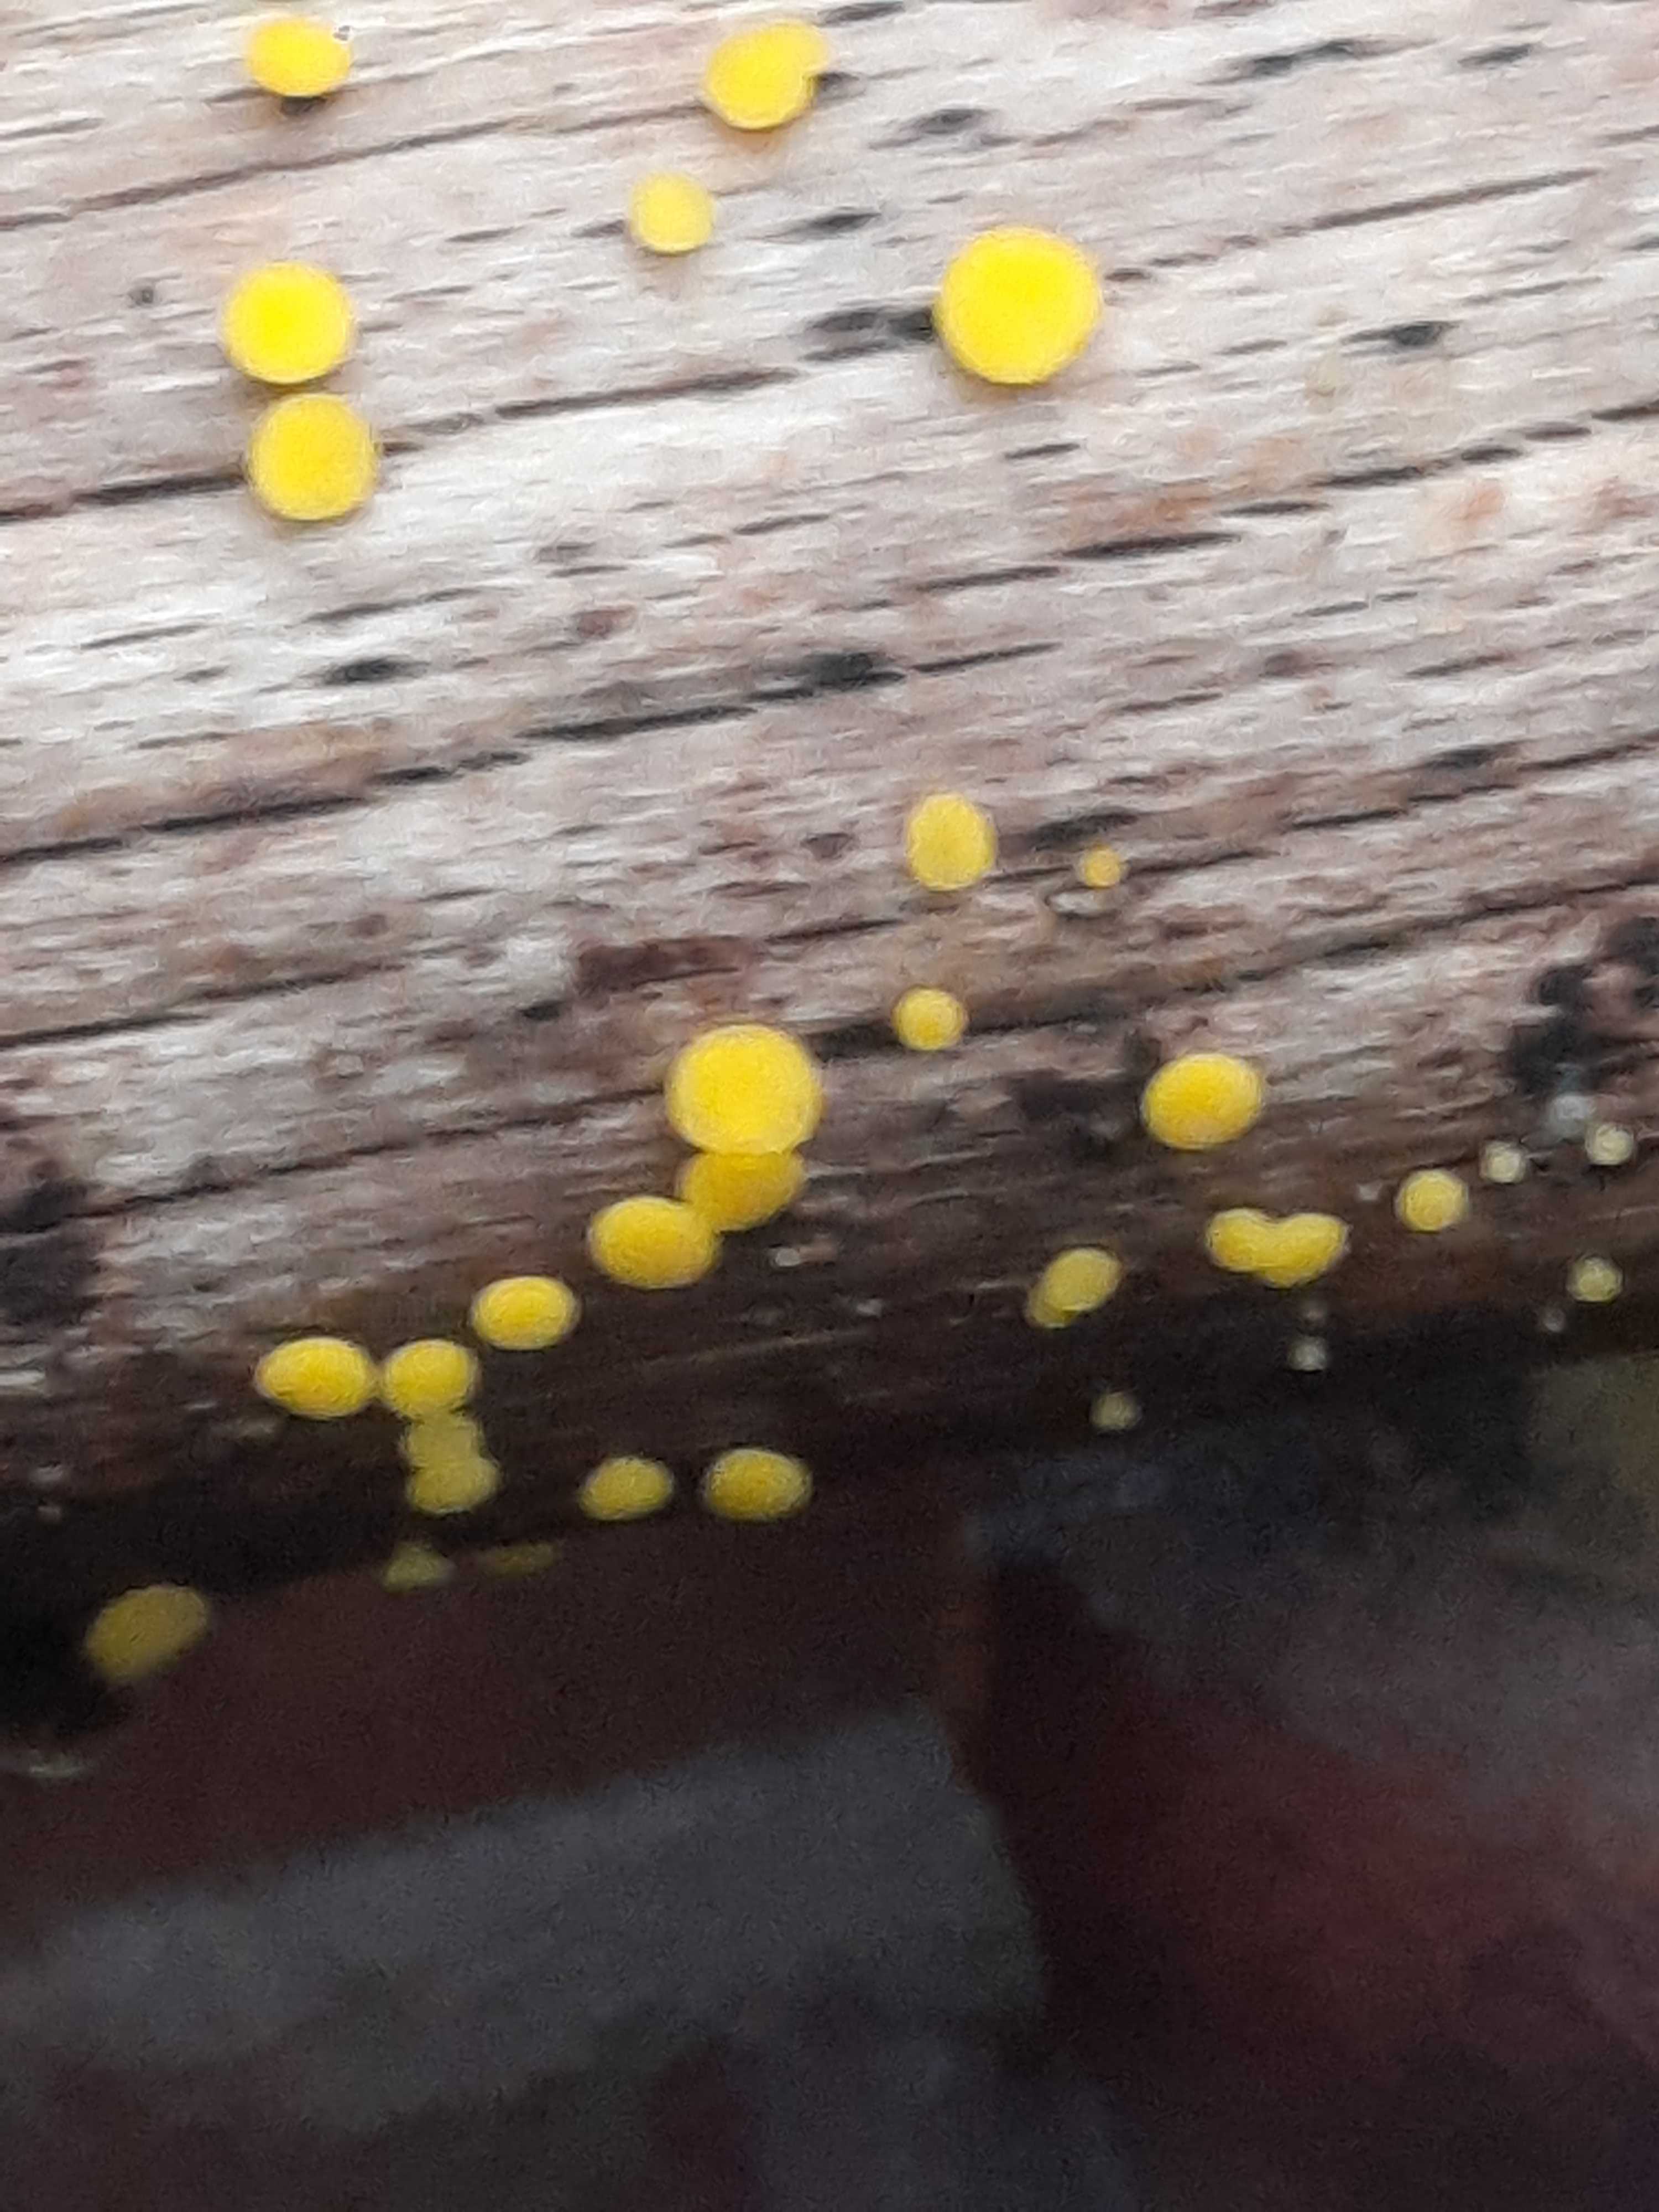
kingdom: Fungi
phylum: Ascomycota
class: Leotiomycetes
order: Helotiales
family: Pezizellaceae
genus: Calycina
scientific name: Calycina citrina
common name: almindelig gulskive
